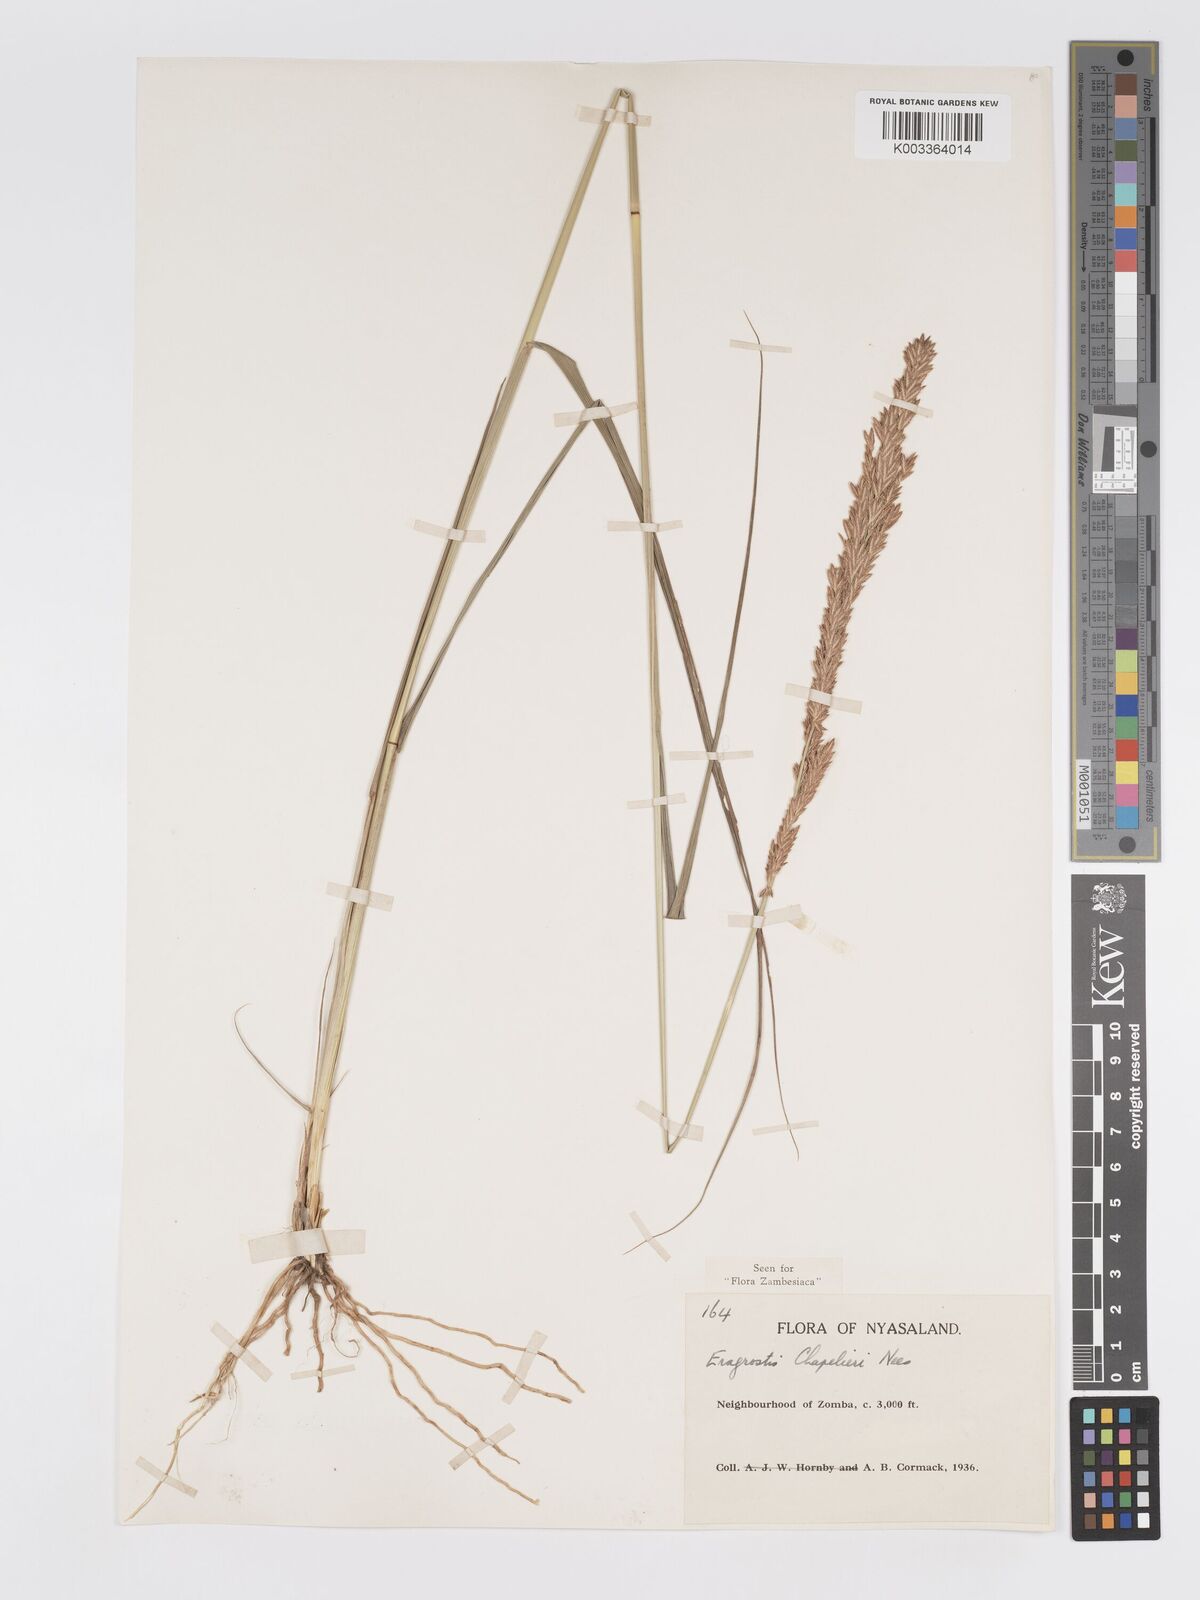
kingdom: Plantae
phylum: Tracheophyta
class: Liliopsida
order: Poales
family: Poaceae
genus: Eragrostis
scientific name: Eragrostis chapelieri
